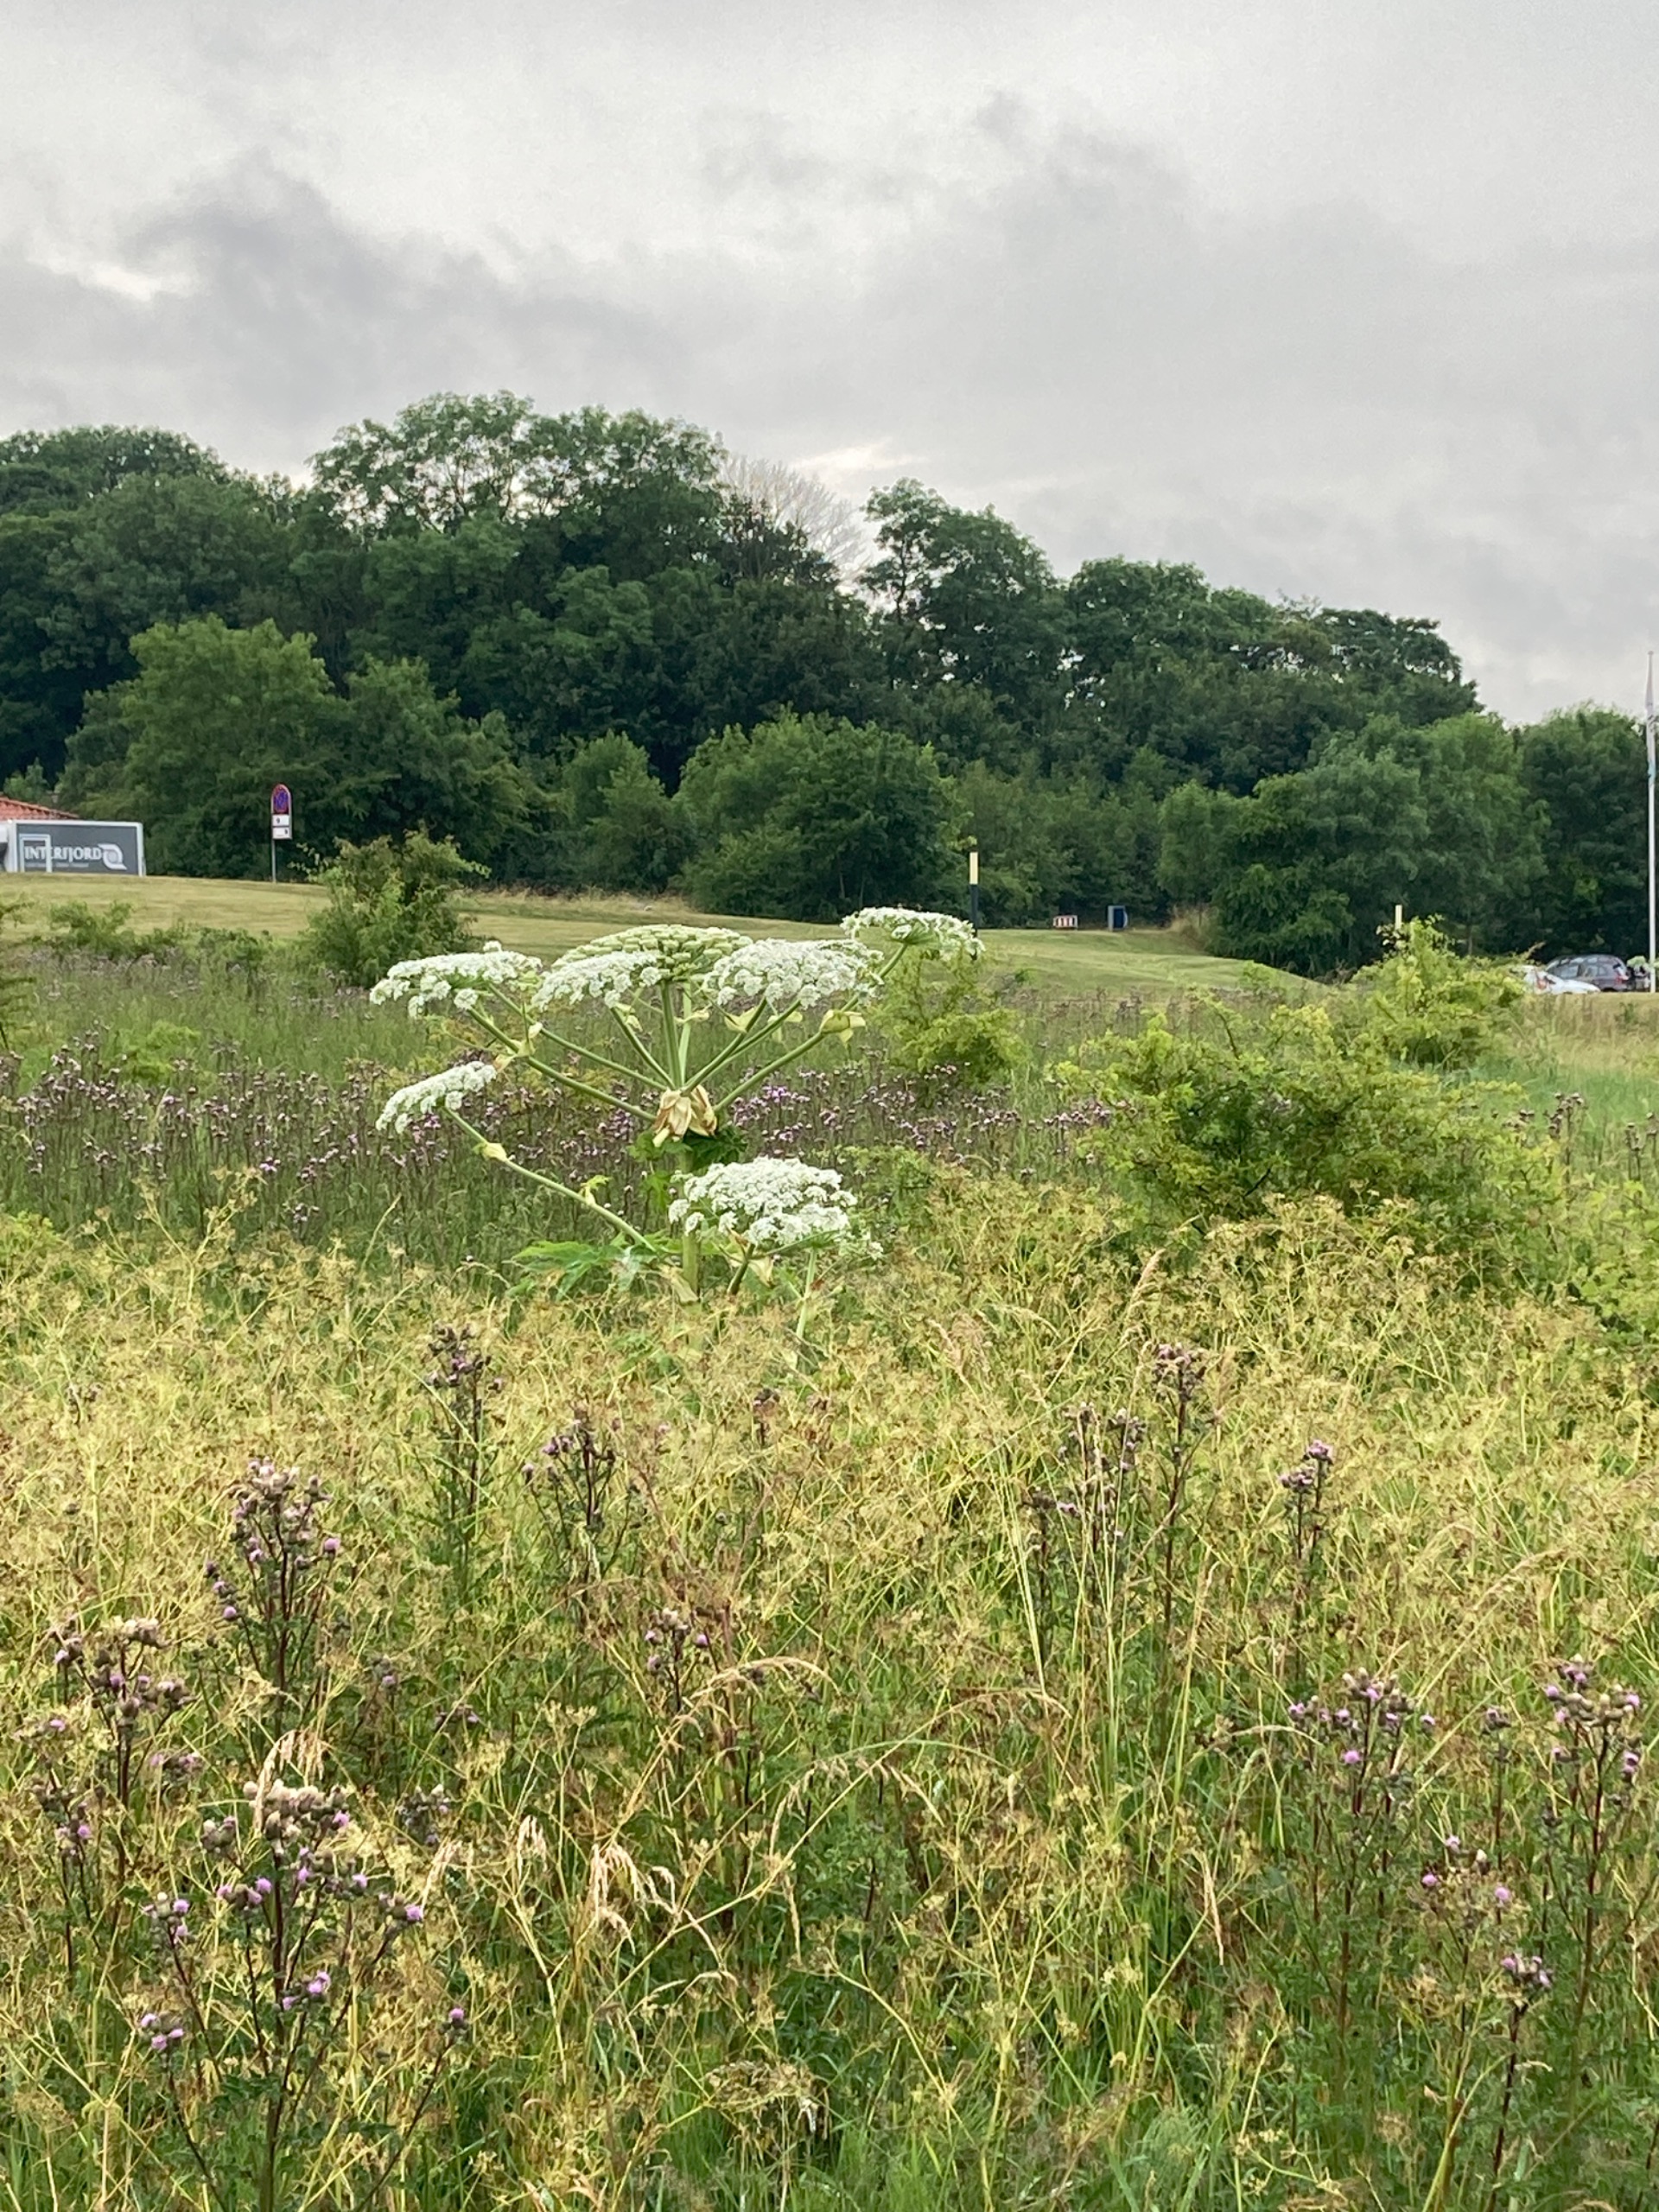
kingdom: Plantae
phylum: Tracheophyta
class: Magnoliopsida
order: Apiales
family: Apiaceae
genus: Heracleum
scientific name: Heracleum mantegazzianum
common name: Kæmpe-bjørneklo
